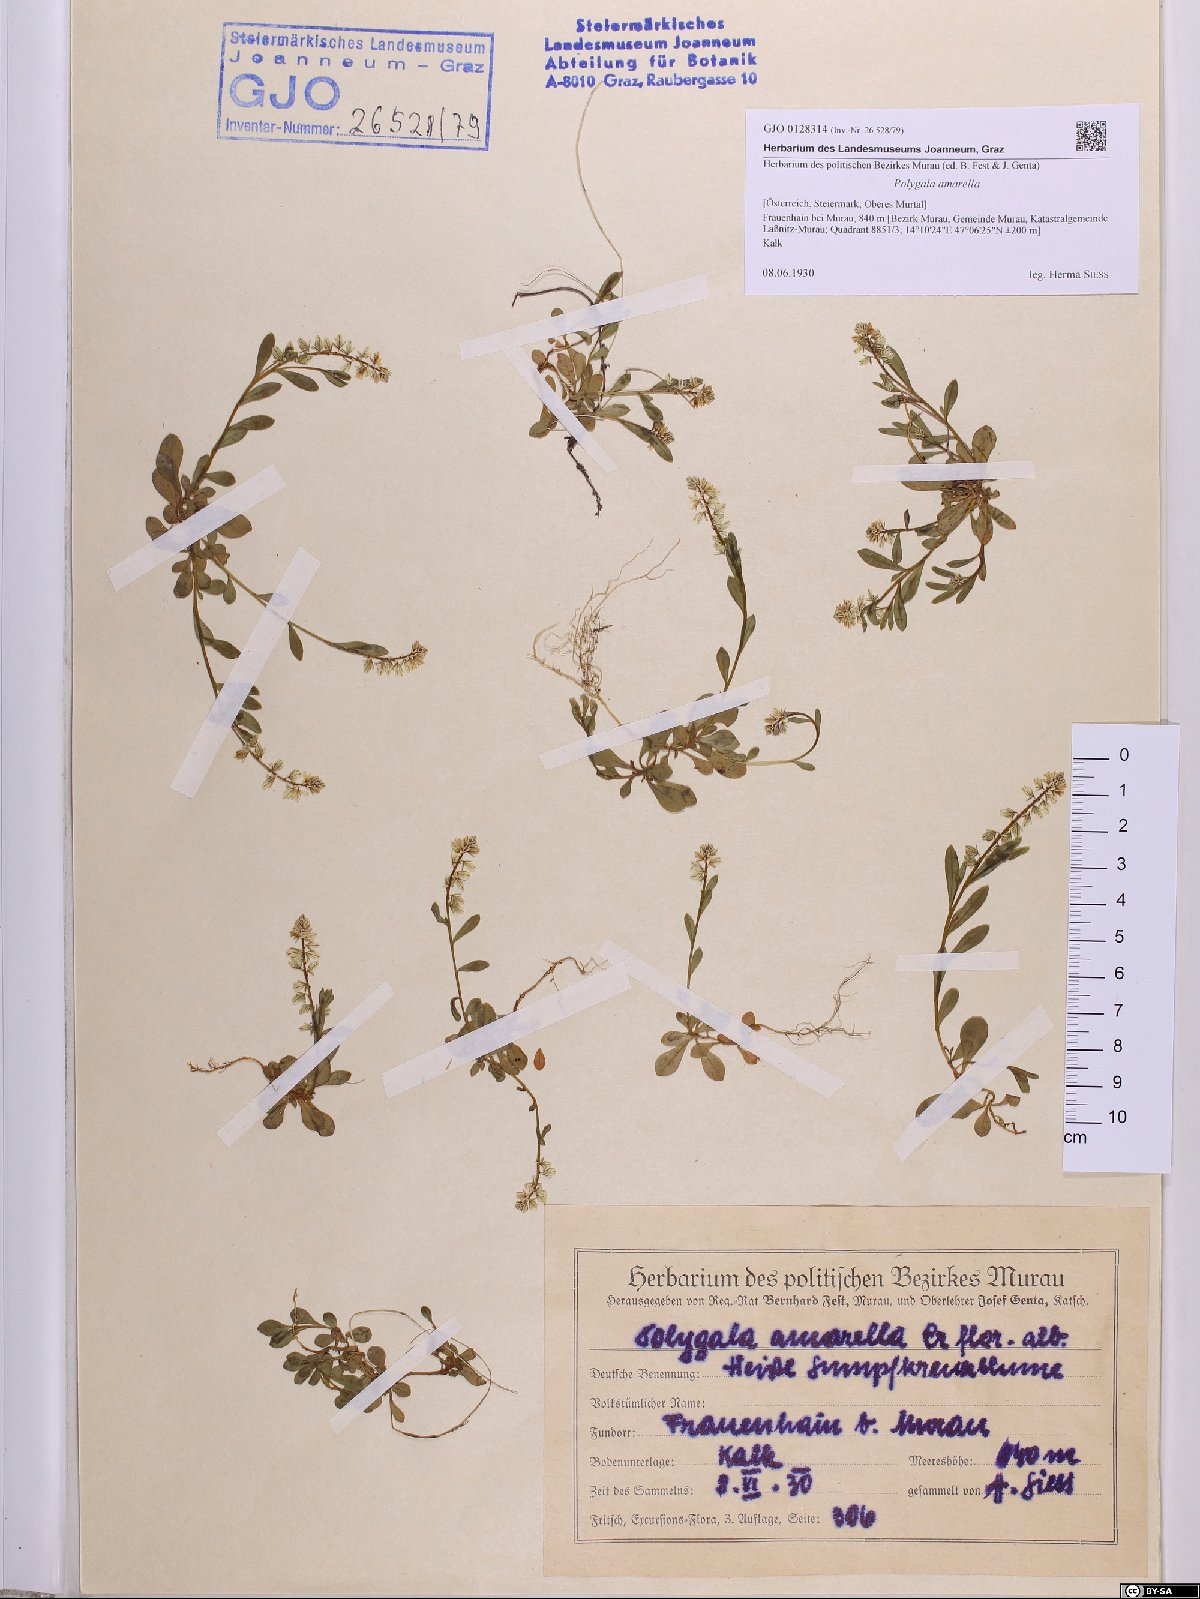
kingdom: Plantae
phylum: Tracheophyta
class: Magnoliopsida
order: Fabales
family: Polygalaceae
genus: Polygala
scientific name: Polygala amarella
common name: Dwarf milkwort
